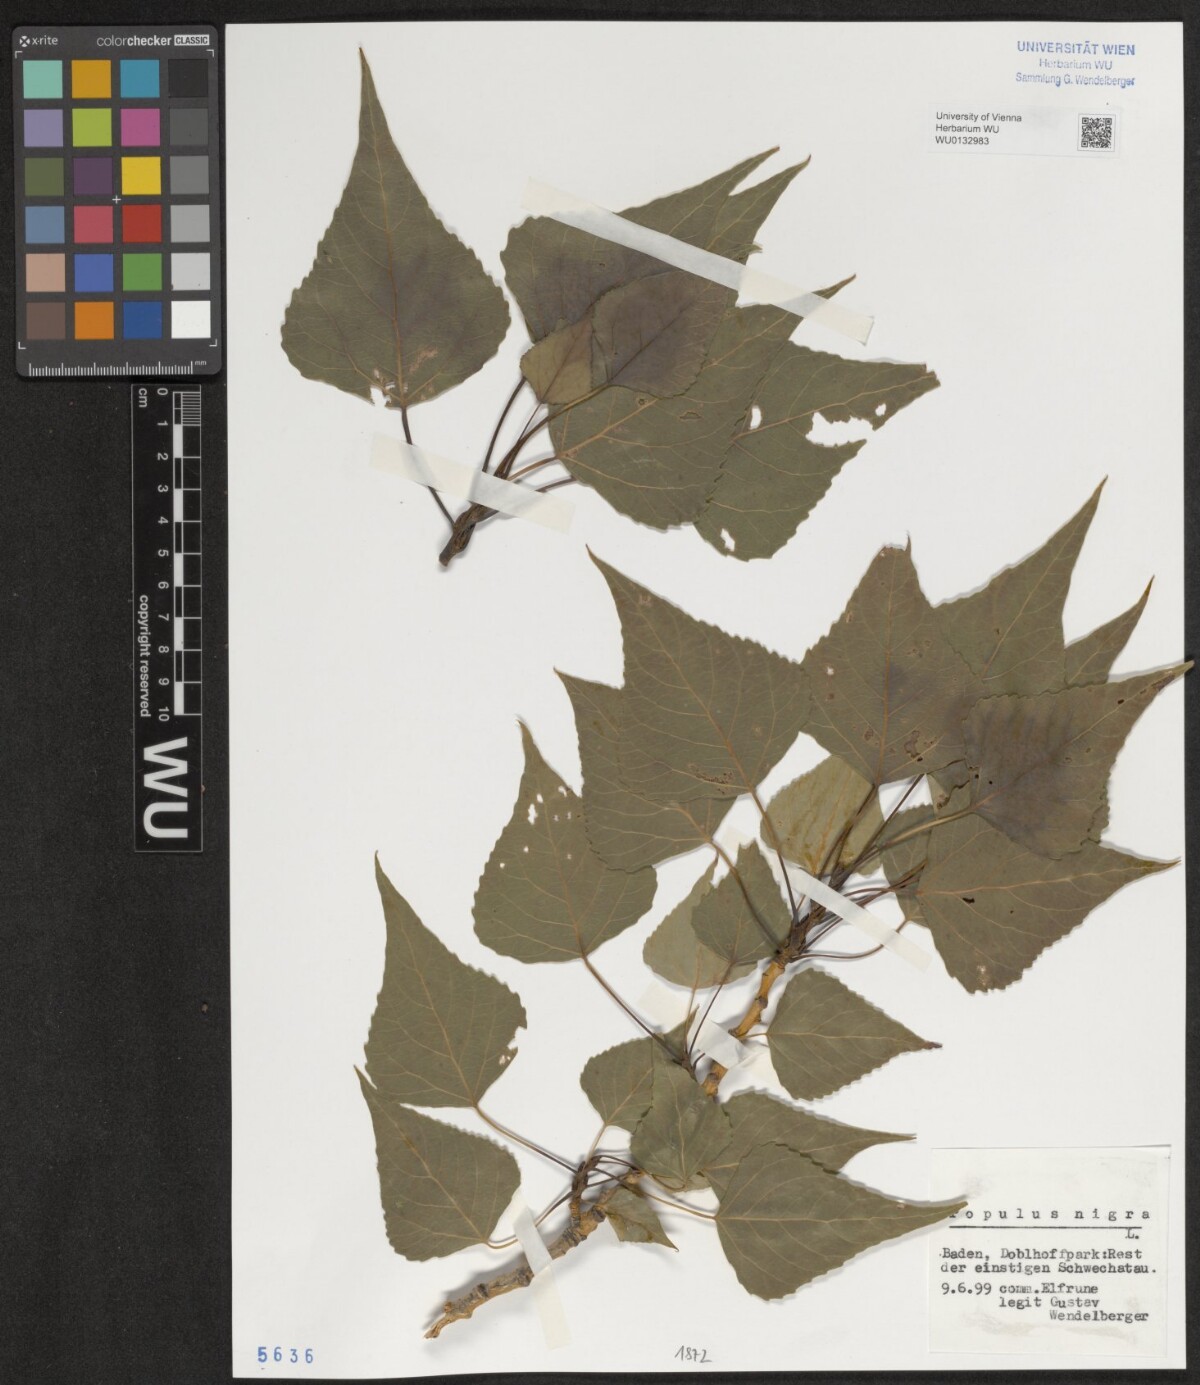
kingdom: Plantae
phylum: Tracheophyta
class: Magnoliopsida
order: Malpighiales
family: Salicaceae
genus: Populus
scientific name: Populus nigra
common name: Black poplar
